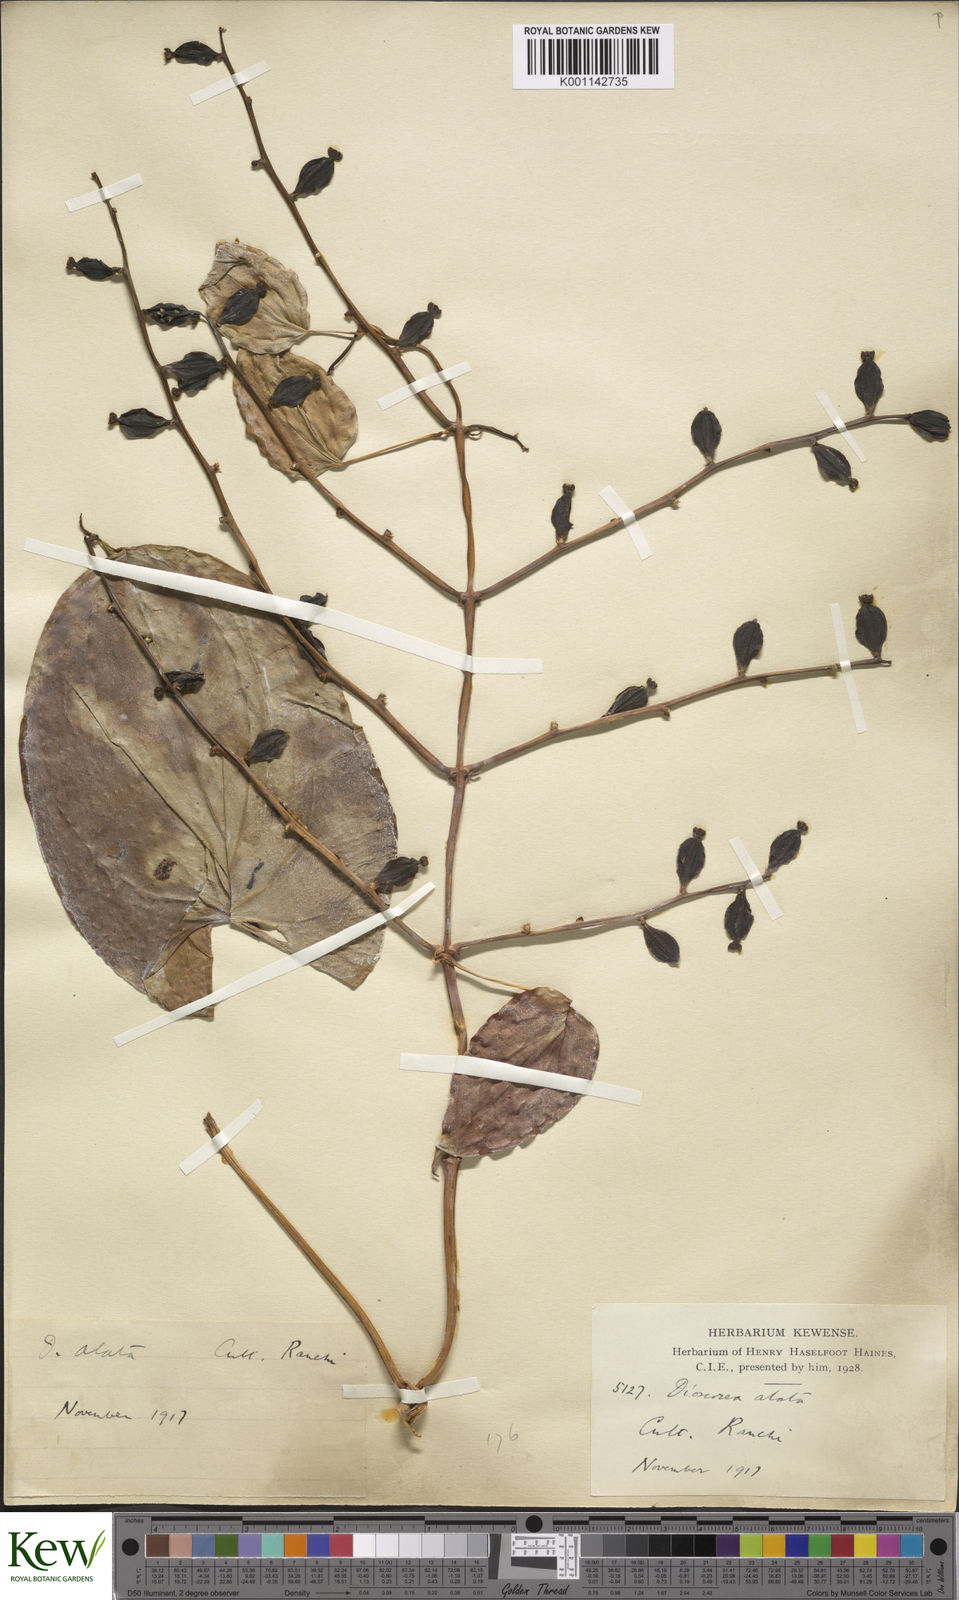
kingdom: Plantae
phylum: Tracheophyta
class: Liliopsida
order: Dioscoreales
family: Dioscoreaceae
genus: Dioscorea
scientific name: Dioscorea alata
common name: Water yam
